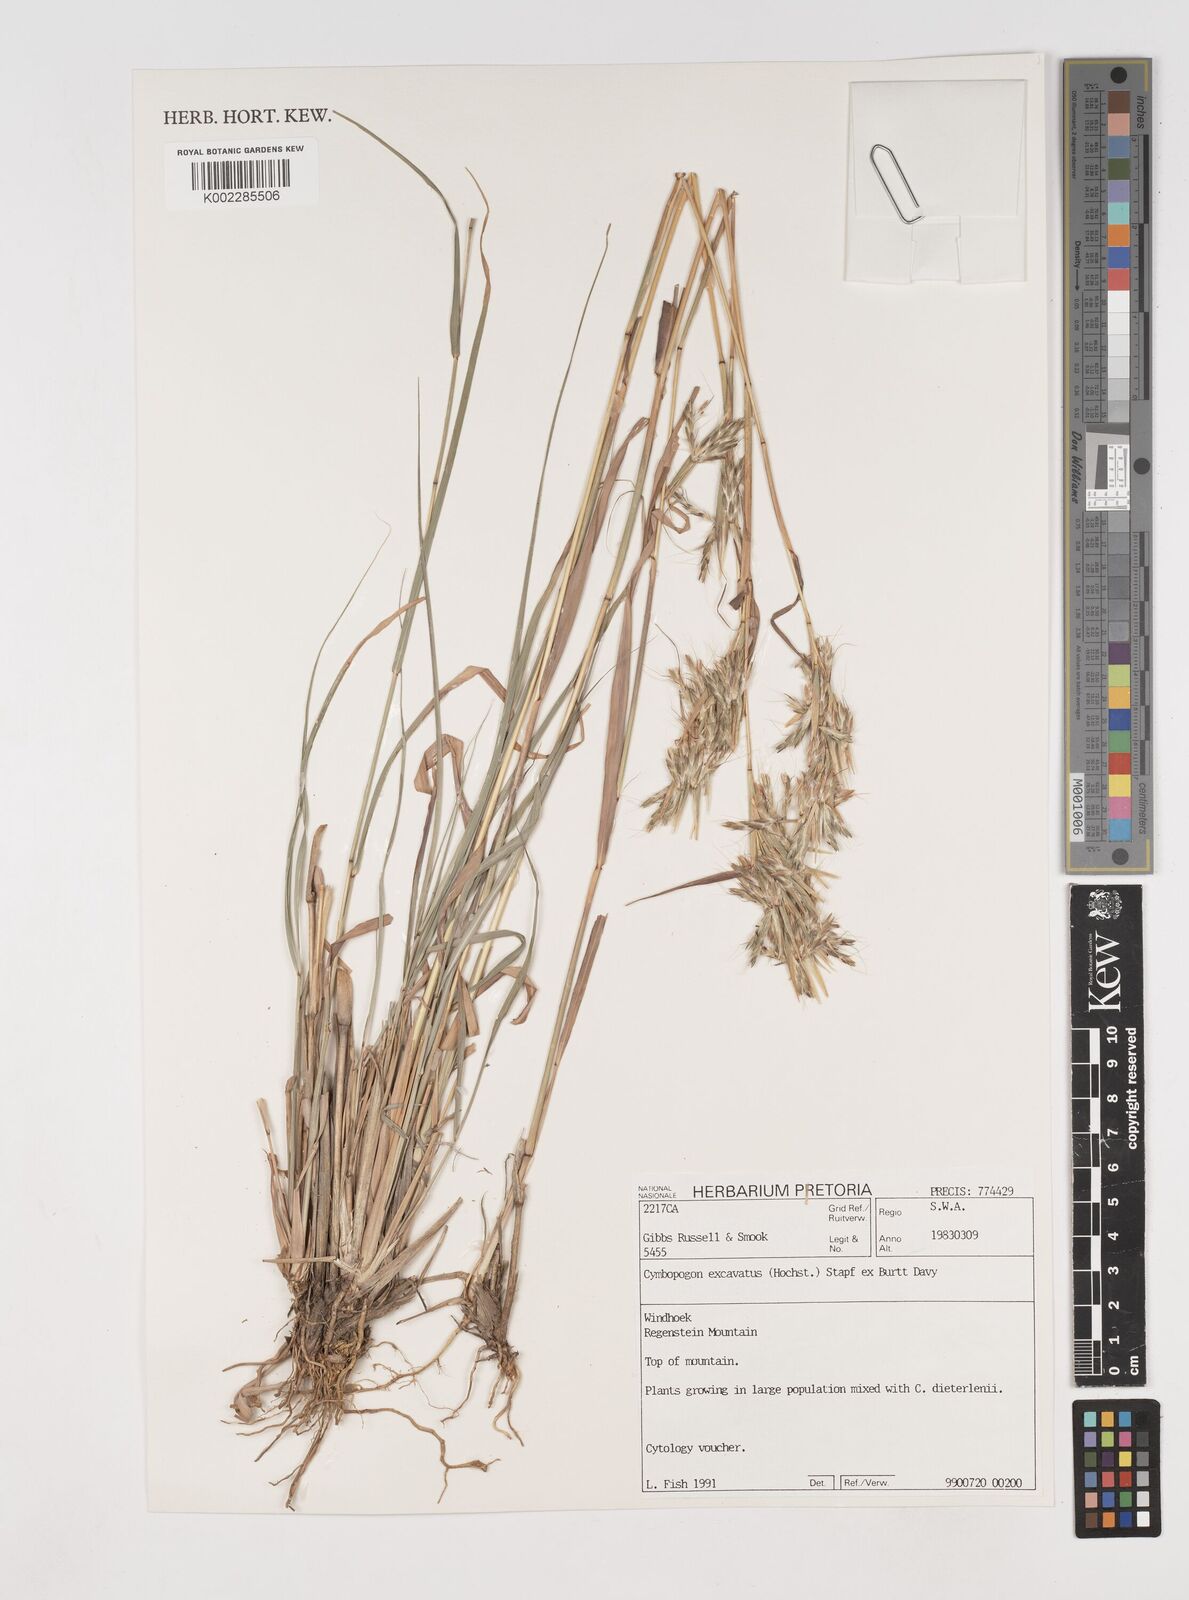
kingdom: Plantae
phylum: Tracheophyta
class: Liliopsida
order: Poales
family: Poaceae
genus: Cymbopogon
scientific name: Cymbopogon caesius
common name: Kachi grass
